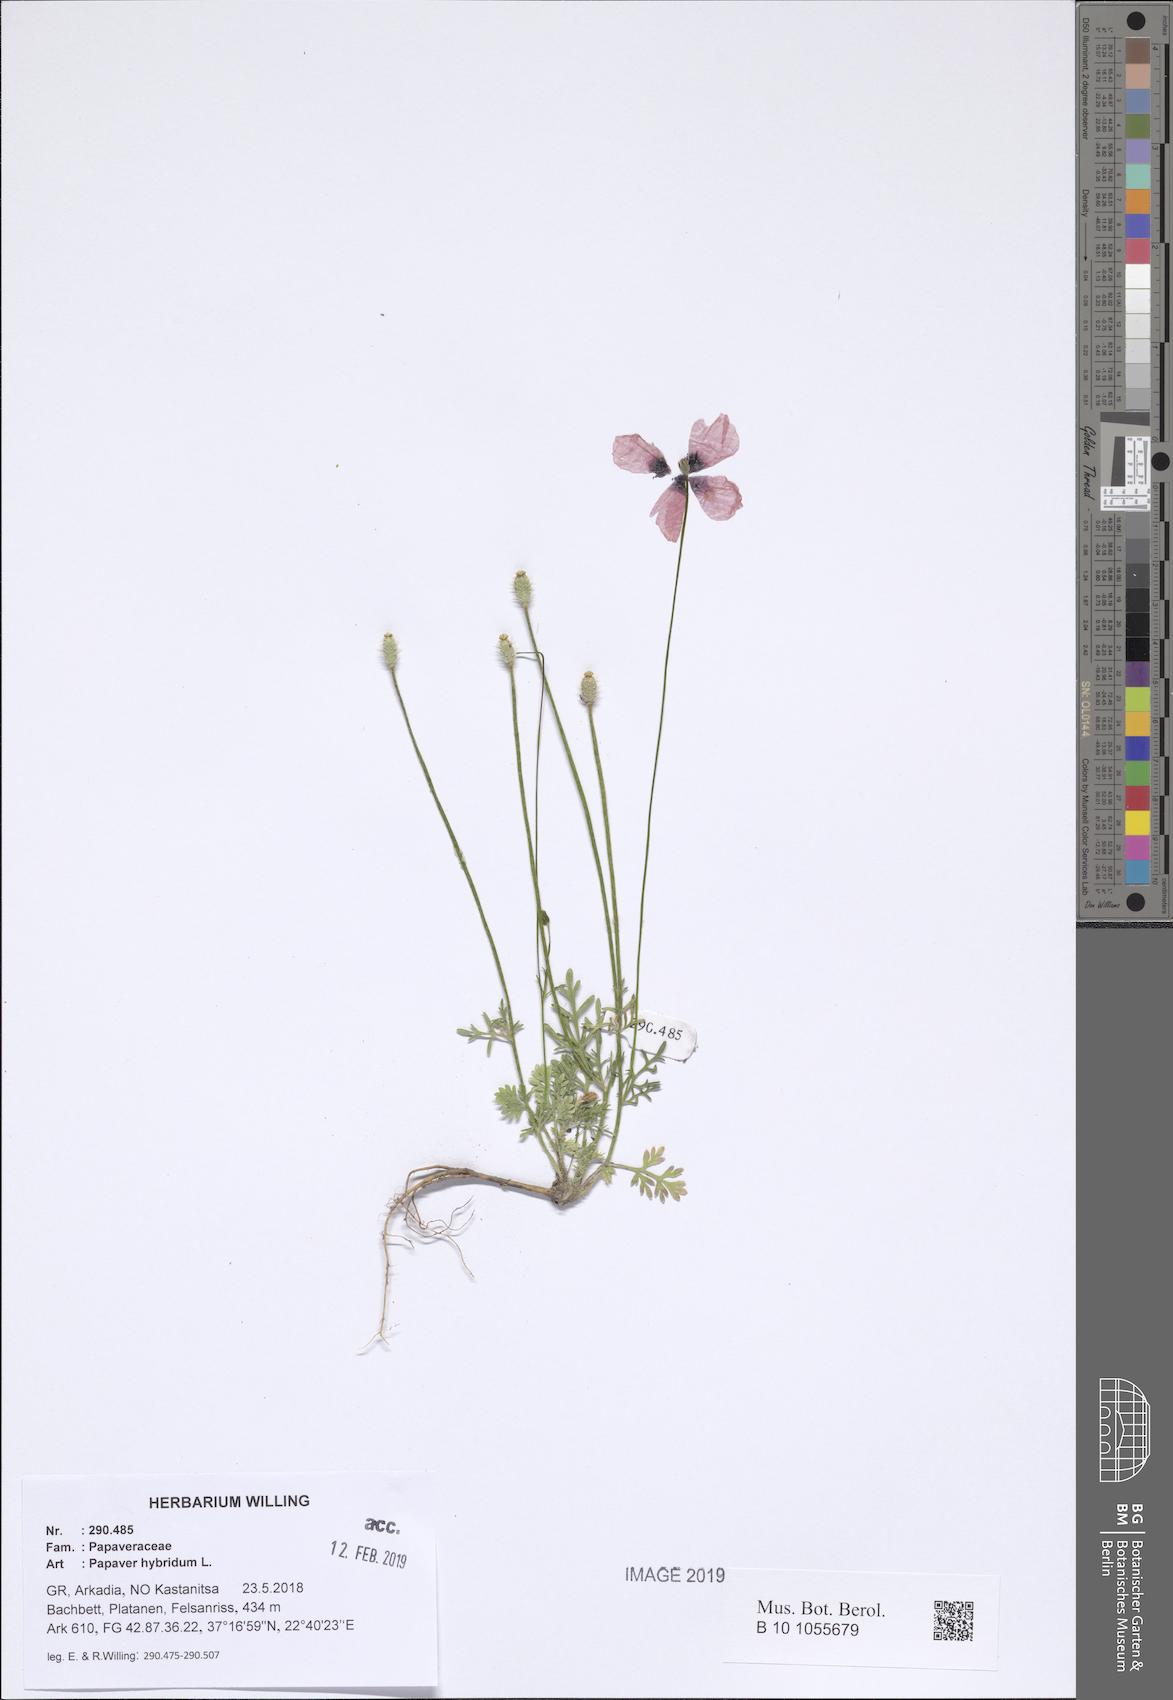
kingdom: Plantae
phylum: Tracheophyta
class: Magnoliopsida
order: Ranunculales
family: Papaveraceae
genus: Roemeria
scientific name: Roemeria hispida
